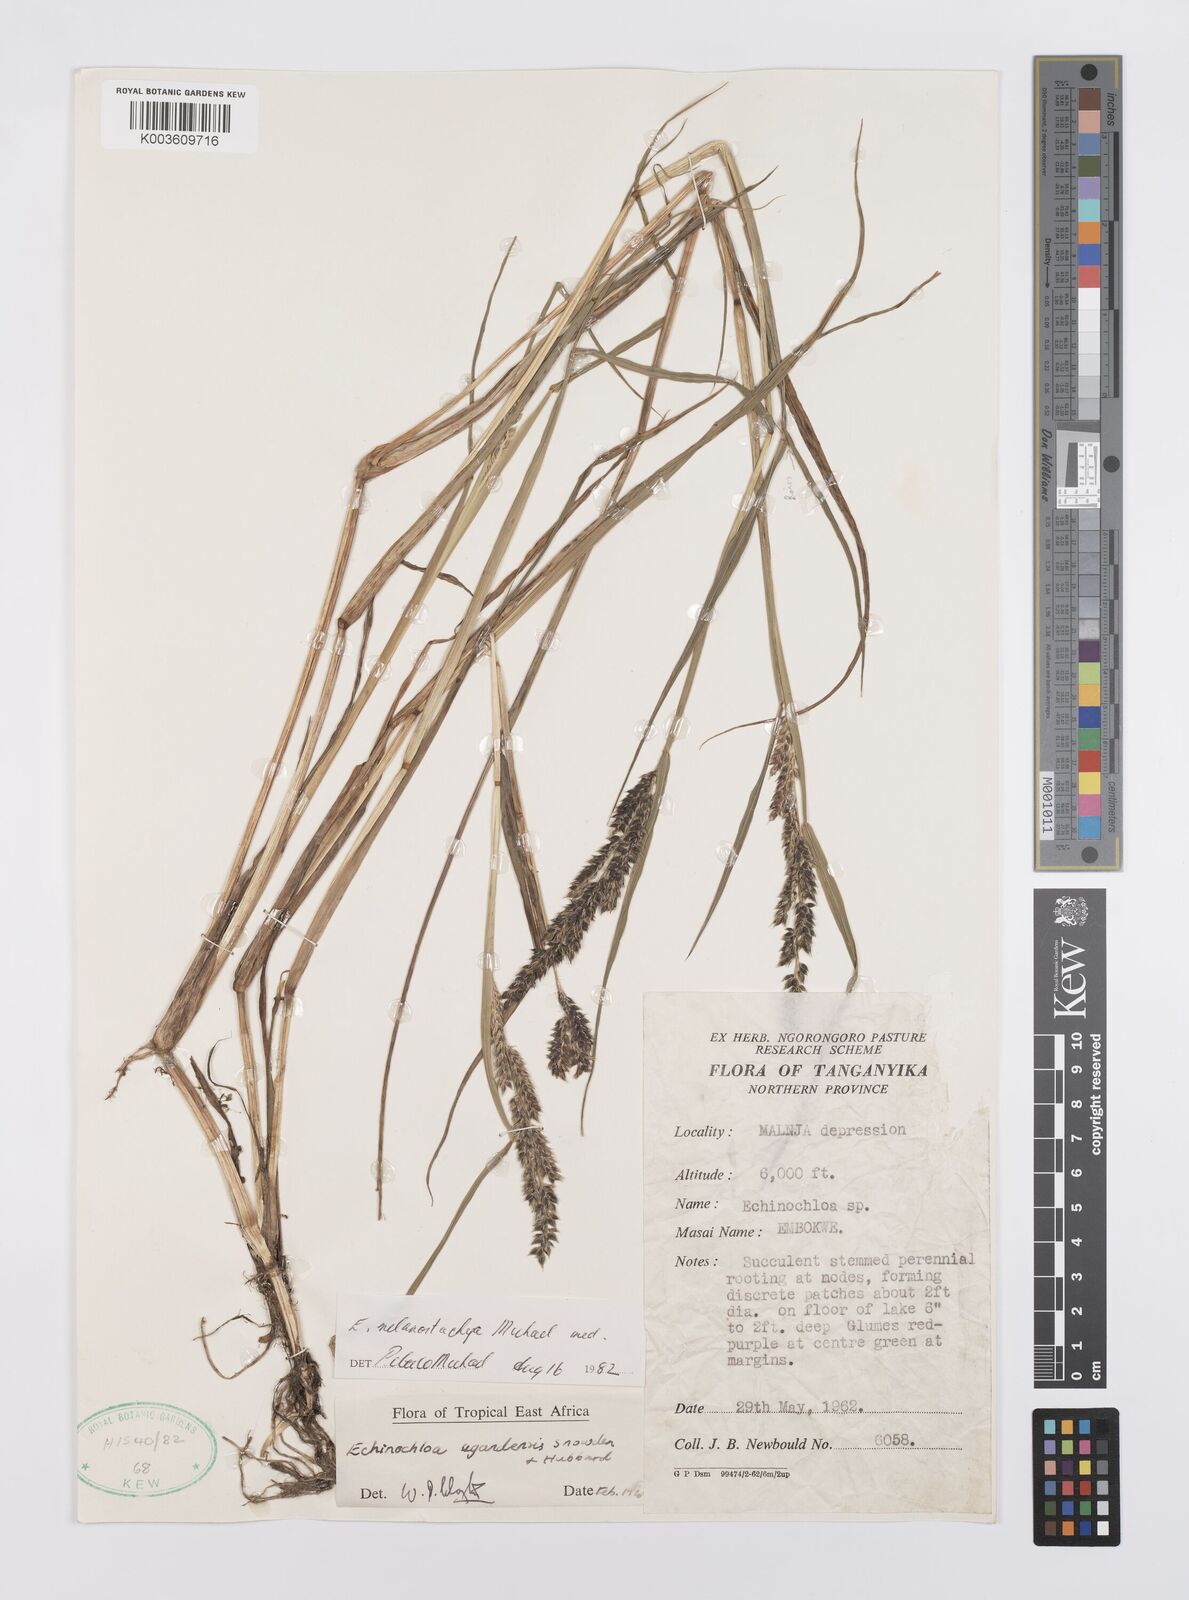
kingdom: Plantae
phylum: Tracheophyta
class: Liliopsida
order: Poales
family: Poaceae
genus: Echinochloa
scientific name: Echinochloa
